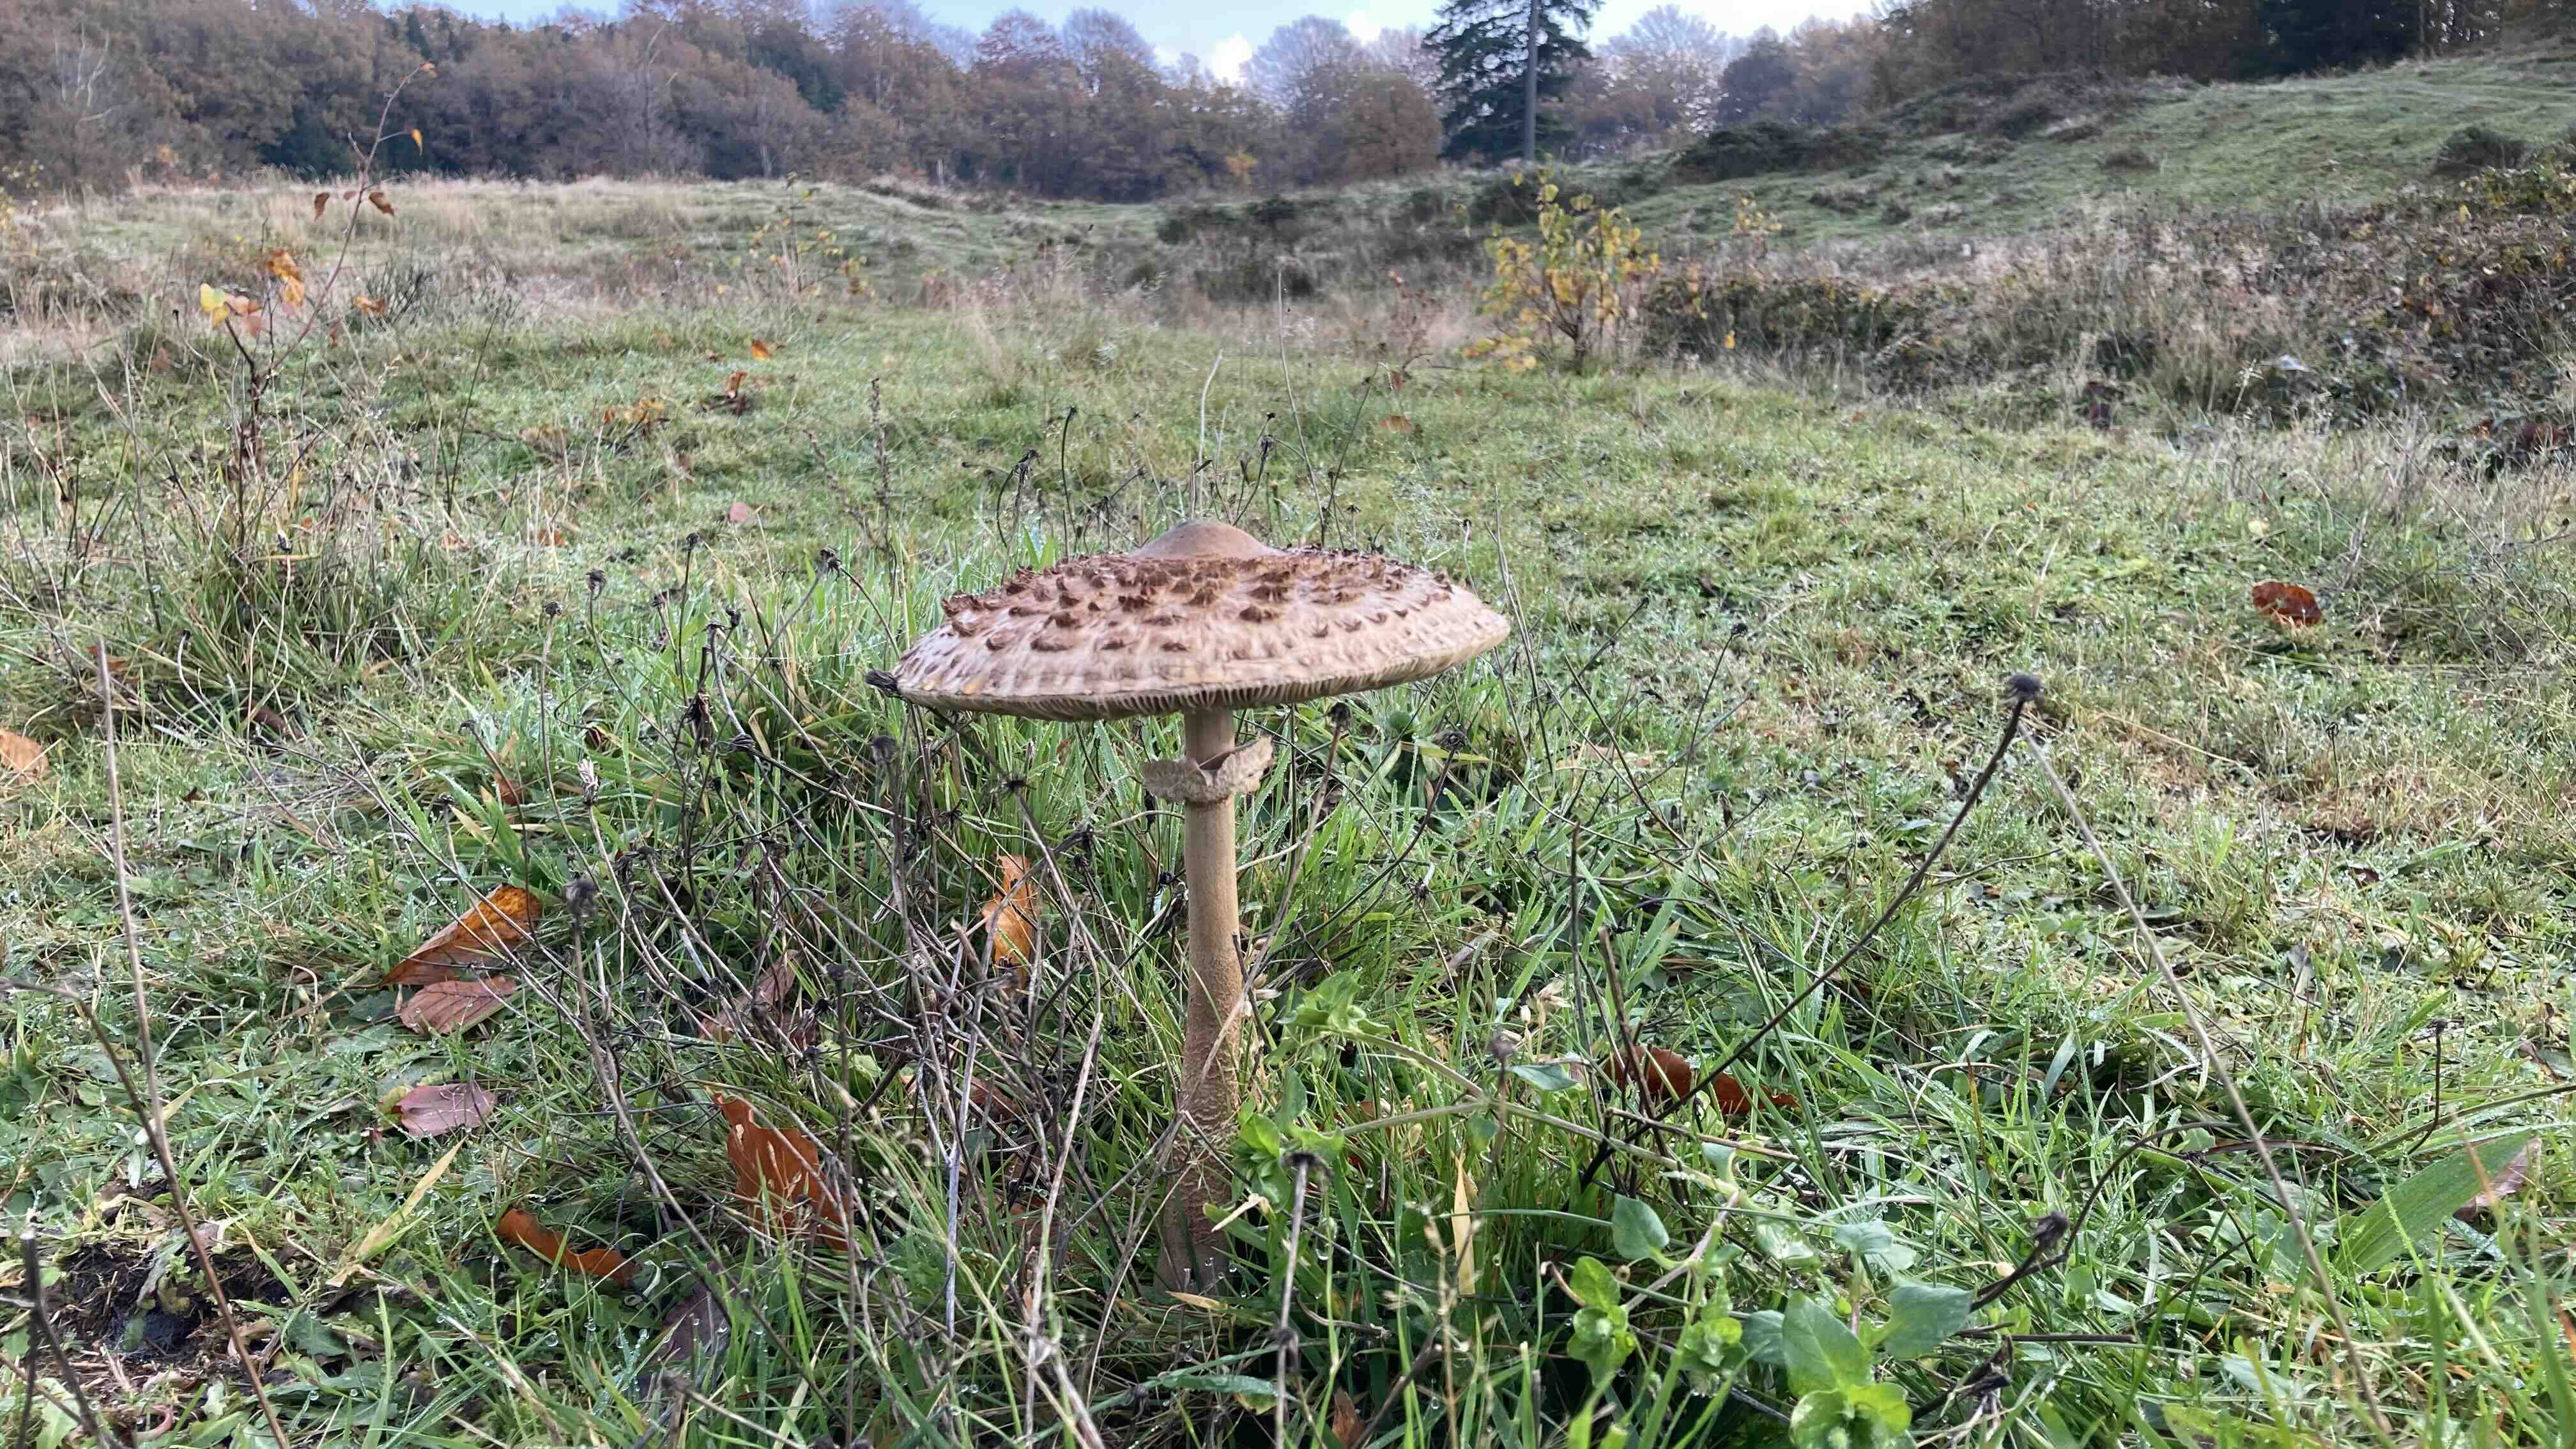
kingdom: Fungi
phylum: Basidiomycota
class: Agaricomycetes
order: Agaricales
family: Agaricaceae
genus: Macrolepiota
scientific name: Macrolepiota procera
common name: stor kæmpeparasolhat
